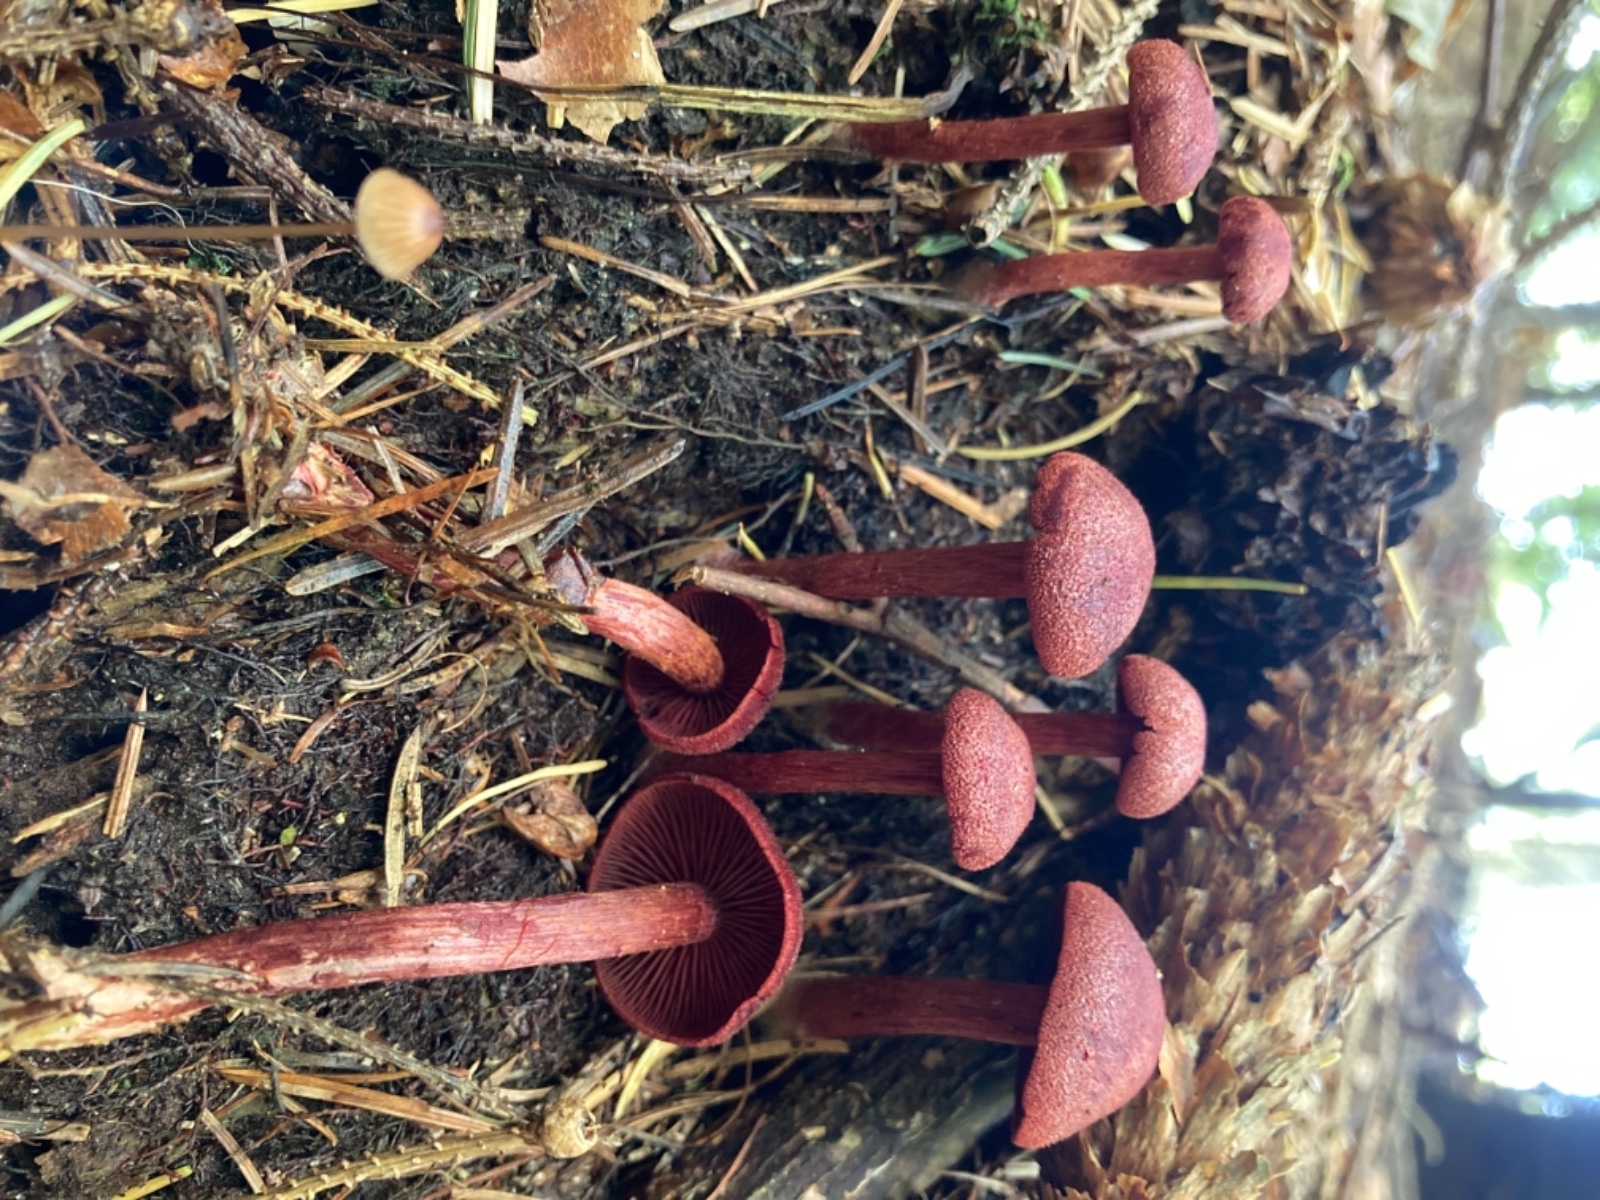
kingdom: Fungi
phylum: Basidiomycota
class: Agaricomycetes
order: Agaricales
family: Cortinariaceae
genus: Cortinarius
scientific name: Cortinarius sanguineus
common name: blodrød slørhat
